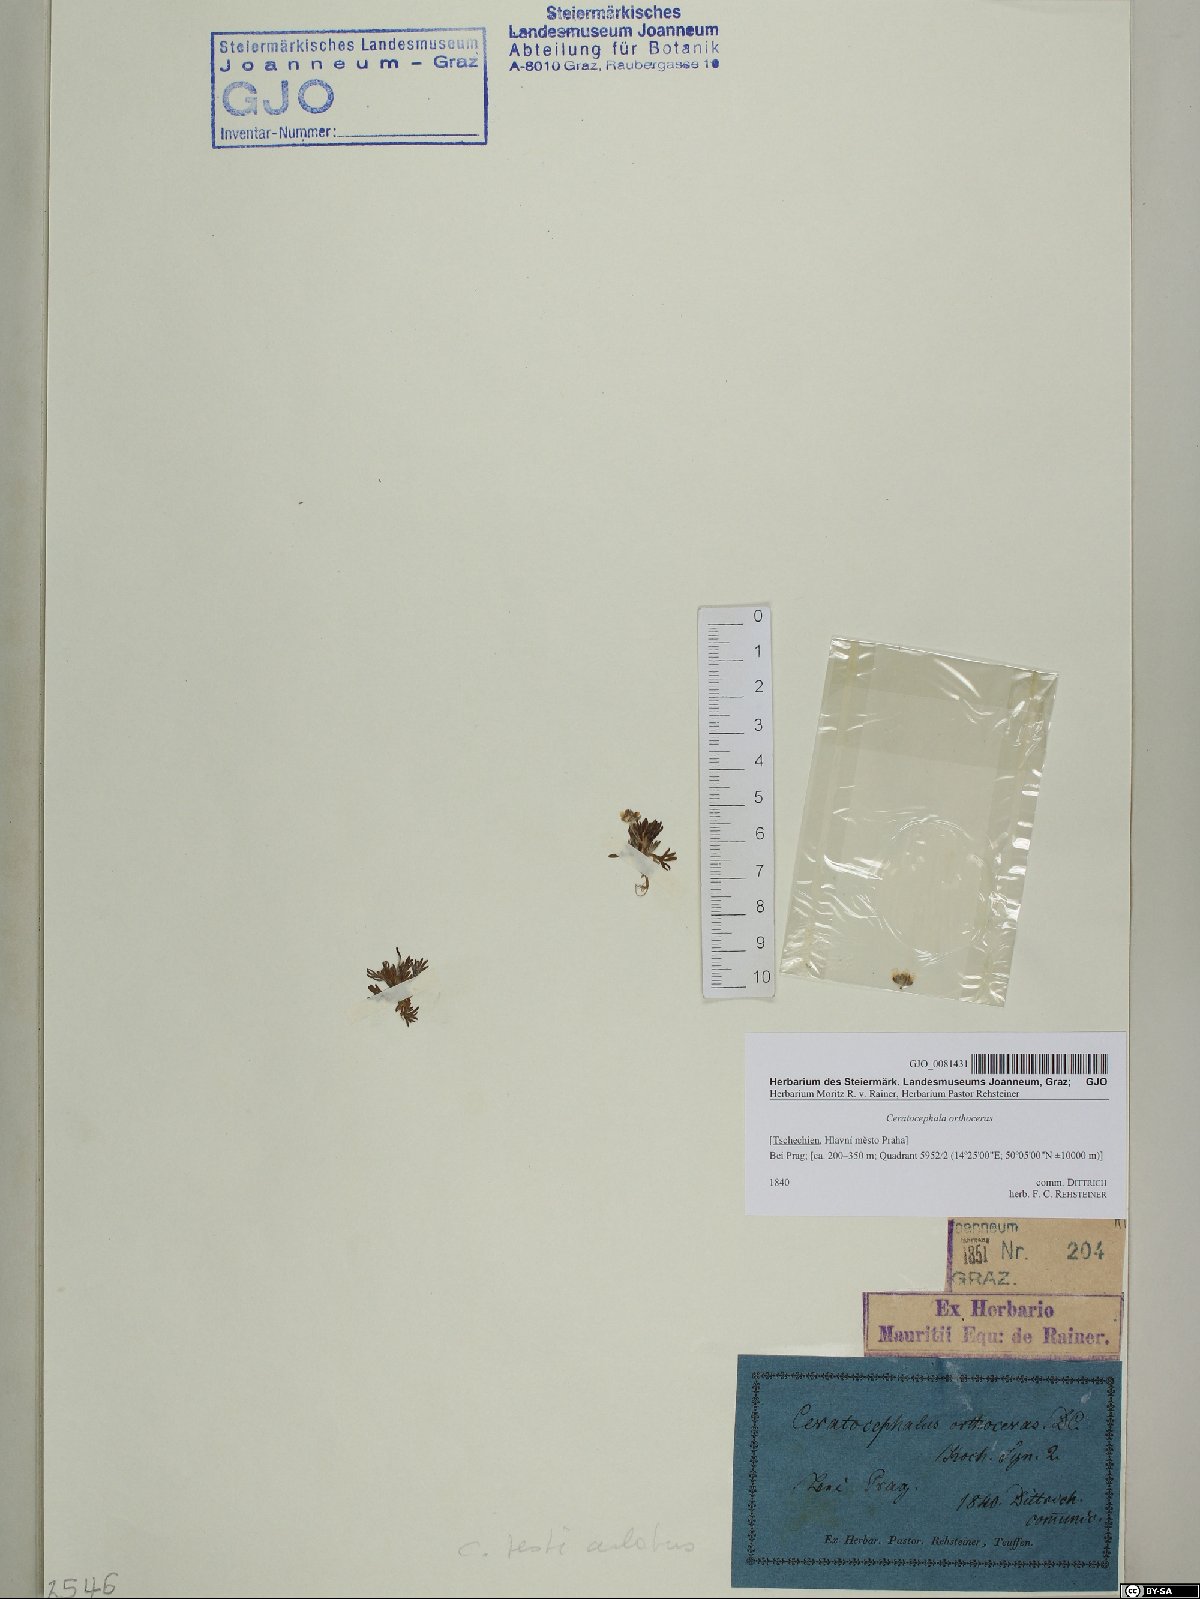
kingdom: Plantae
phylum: Tracheophyta
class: Magnoliopsida
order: Ranunculales
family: Ranunculaceae
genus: Ceratocephala
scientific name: Ceratocephala orthoceras
